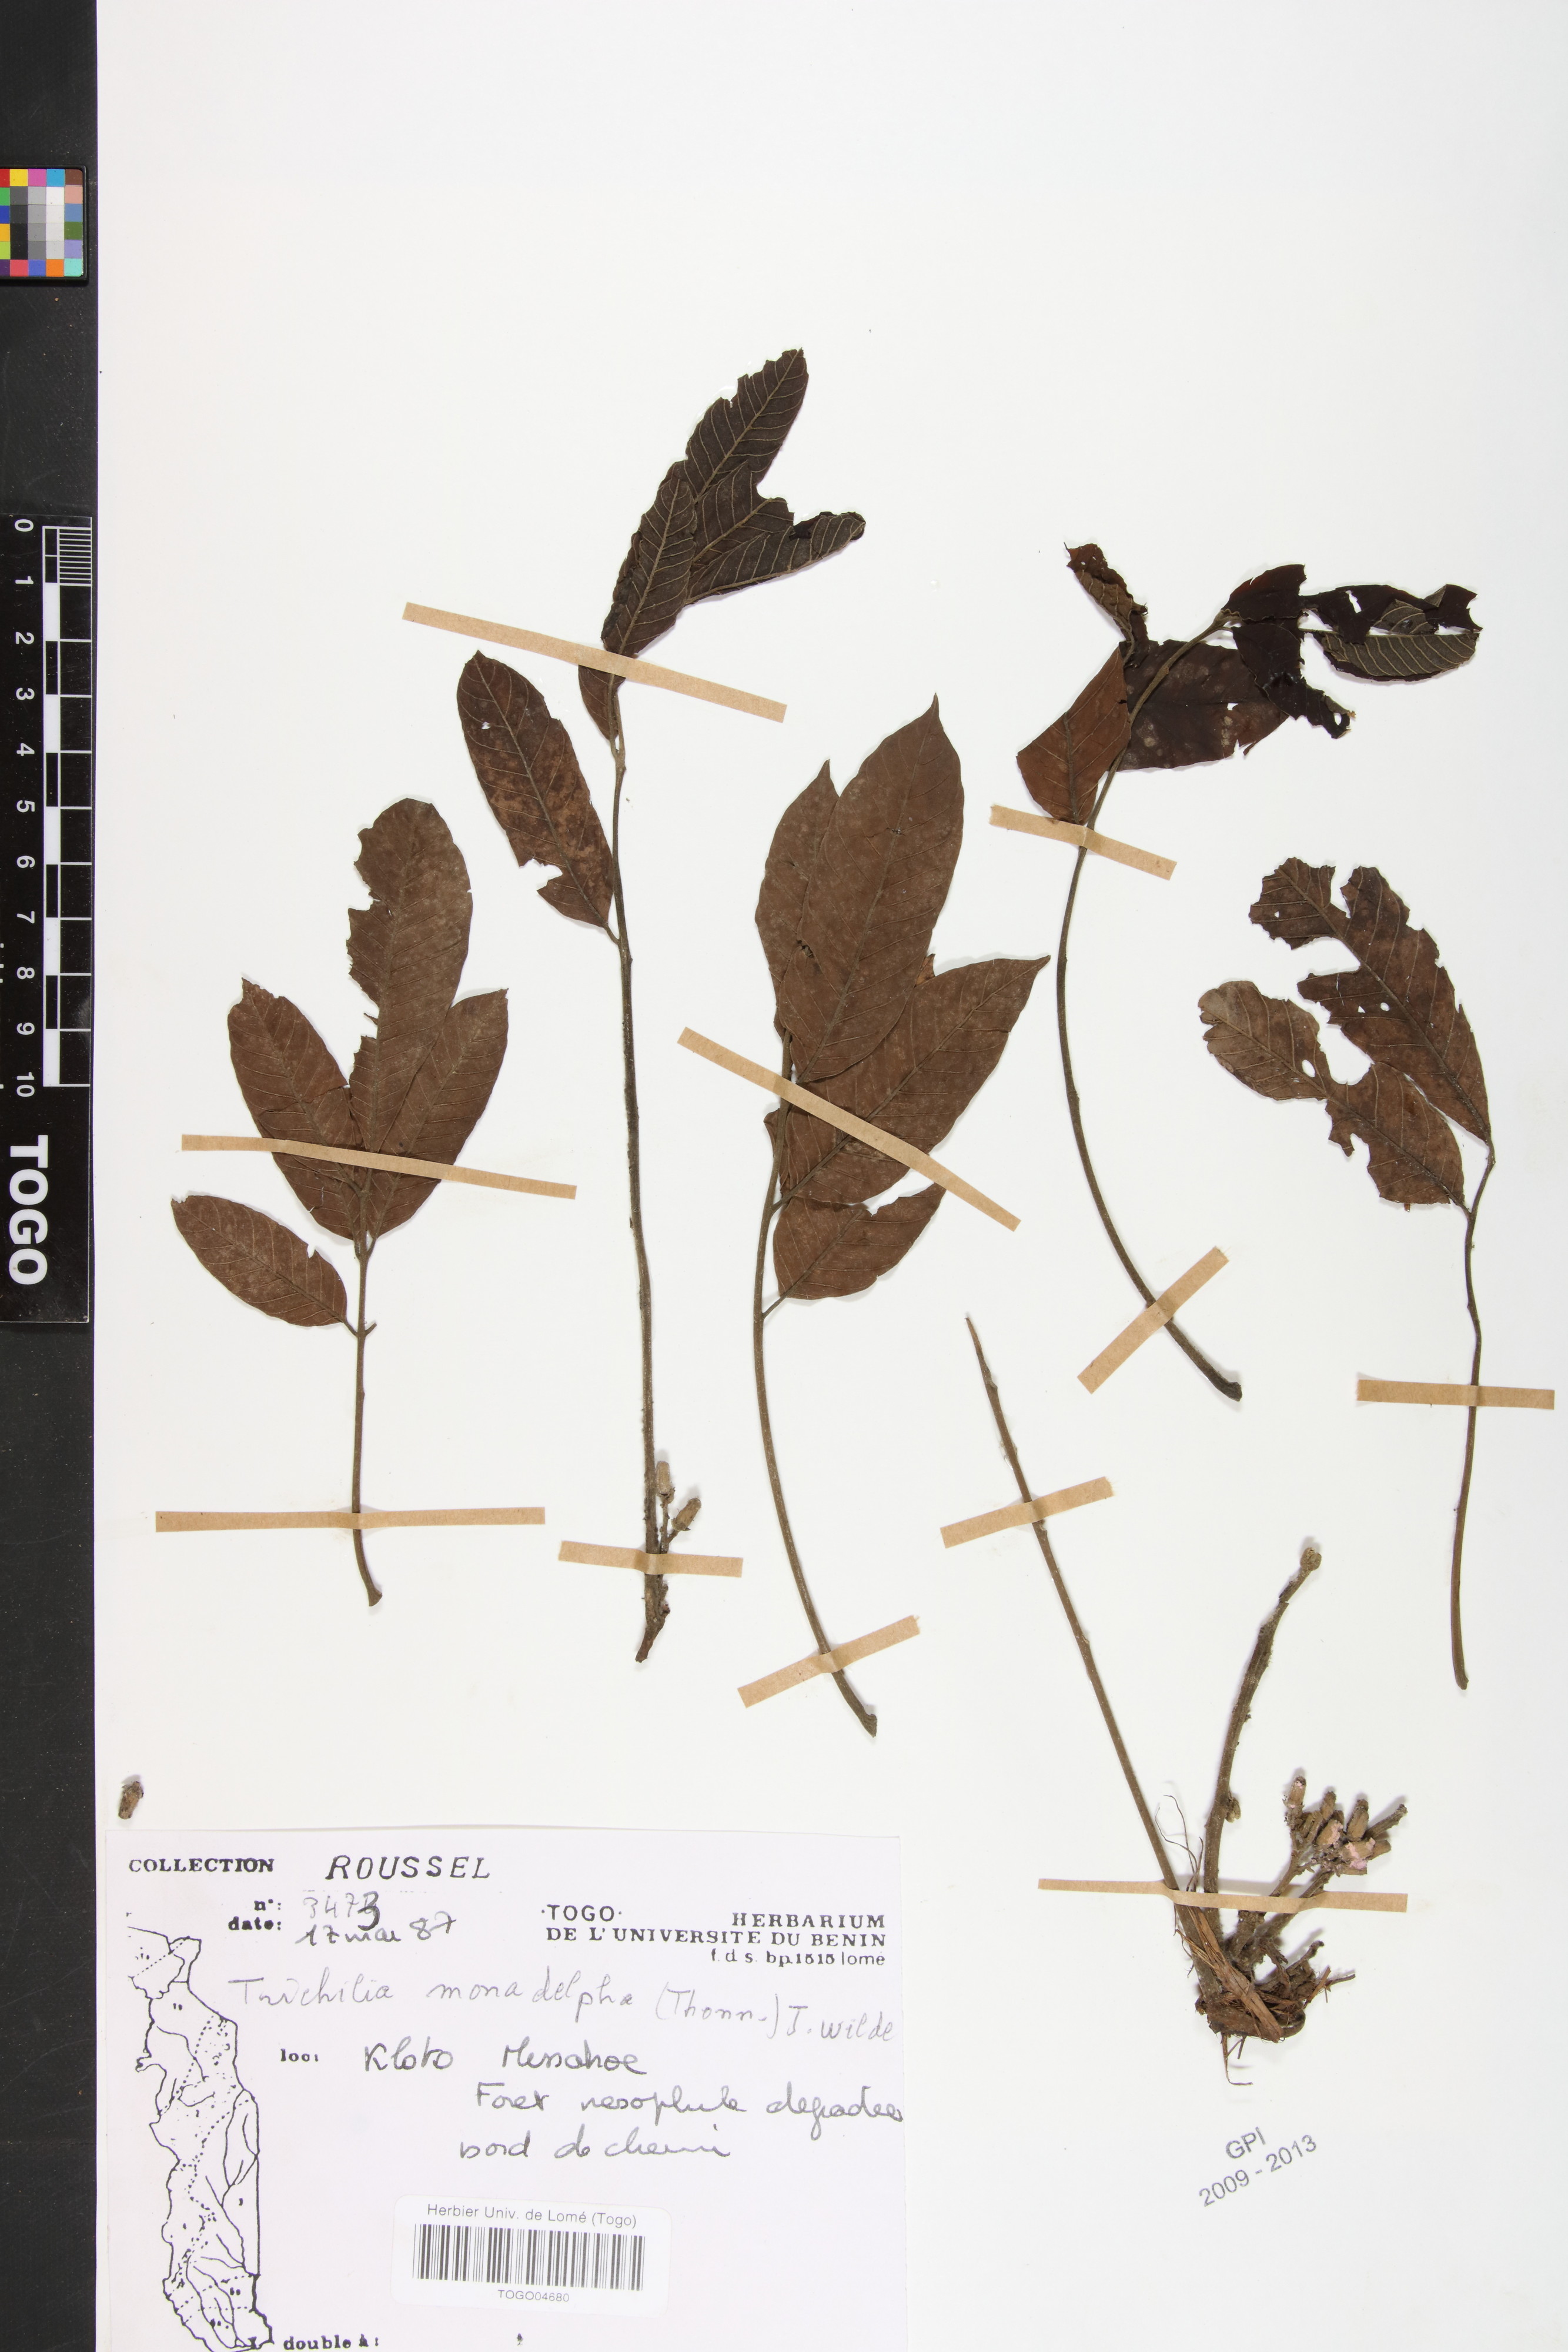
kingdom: Plantae
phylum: Tracheophyta
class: Magnoliopsida
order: Sapindales
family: Meliaceae
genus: Trichilia
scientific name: Trichilia monadelpha
